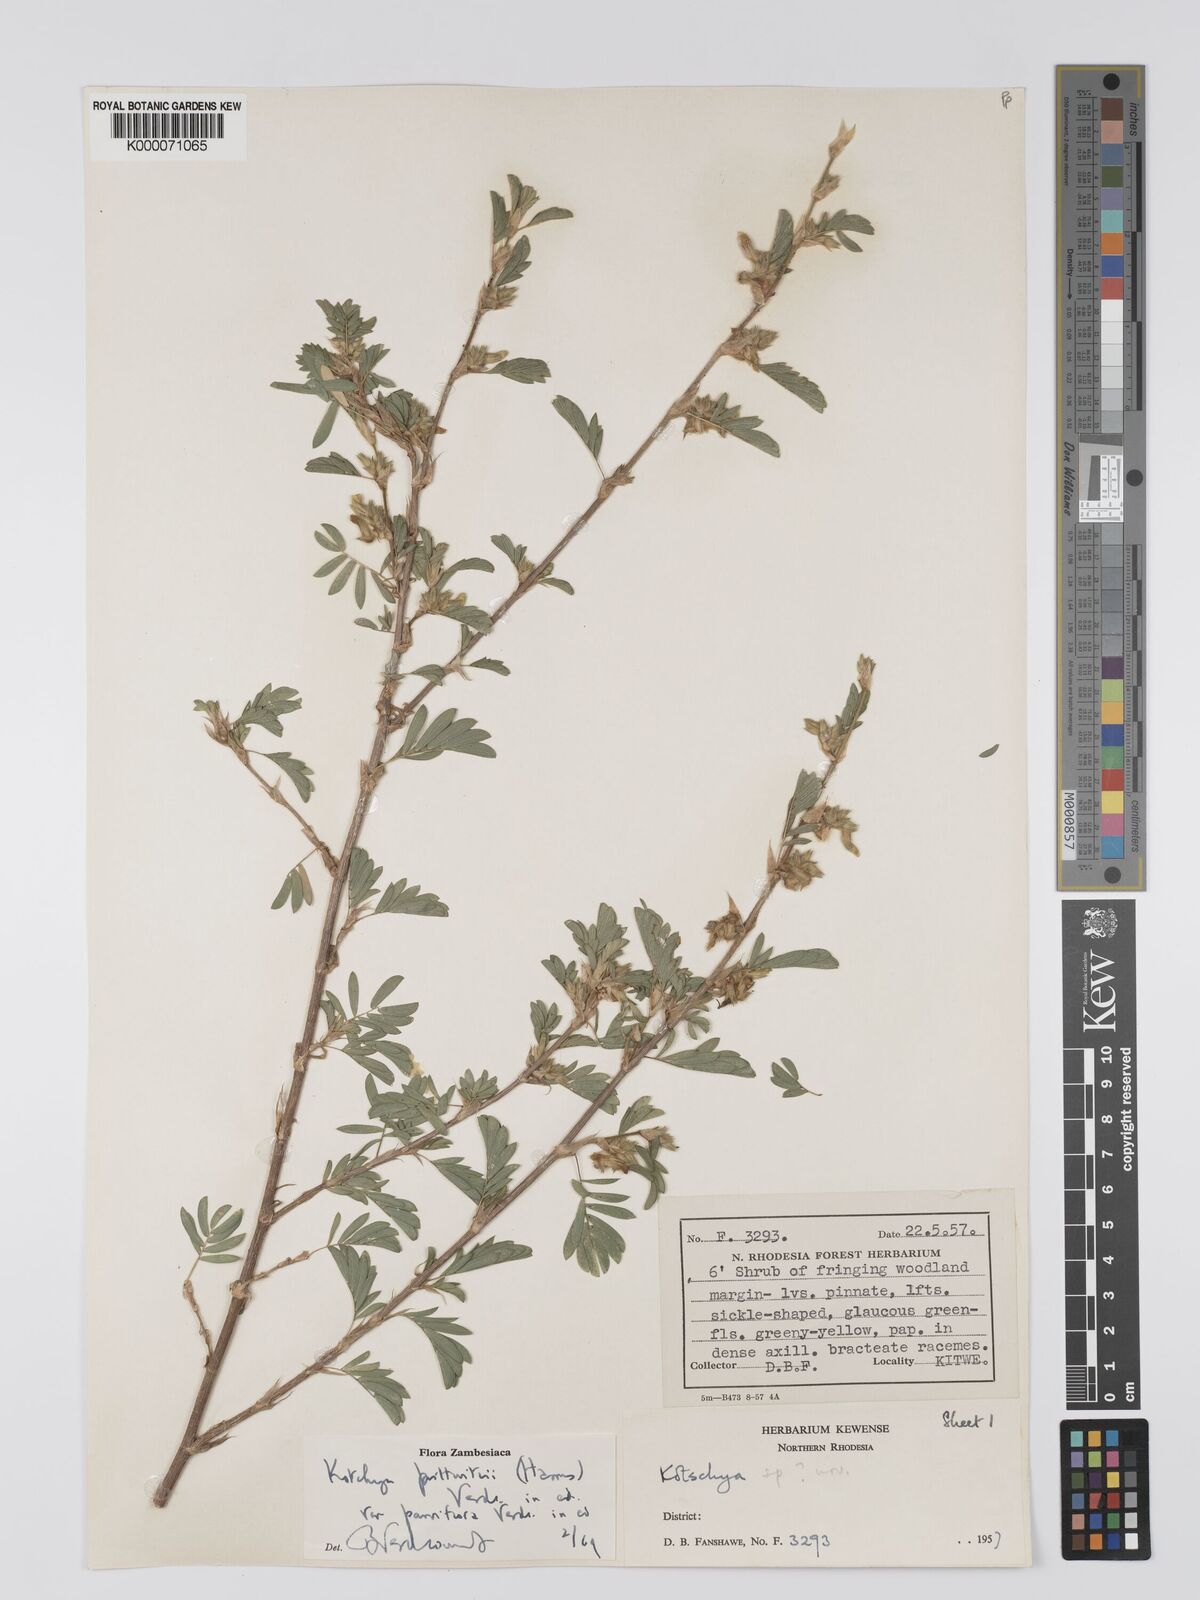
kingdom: Plantae
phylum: Tracheophyta
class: Magnoliopsida
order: Fabales
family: Fabaceae
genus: Kotschya
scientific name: Kotschya prittwitzii
